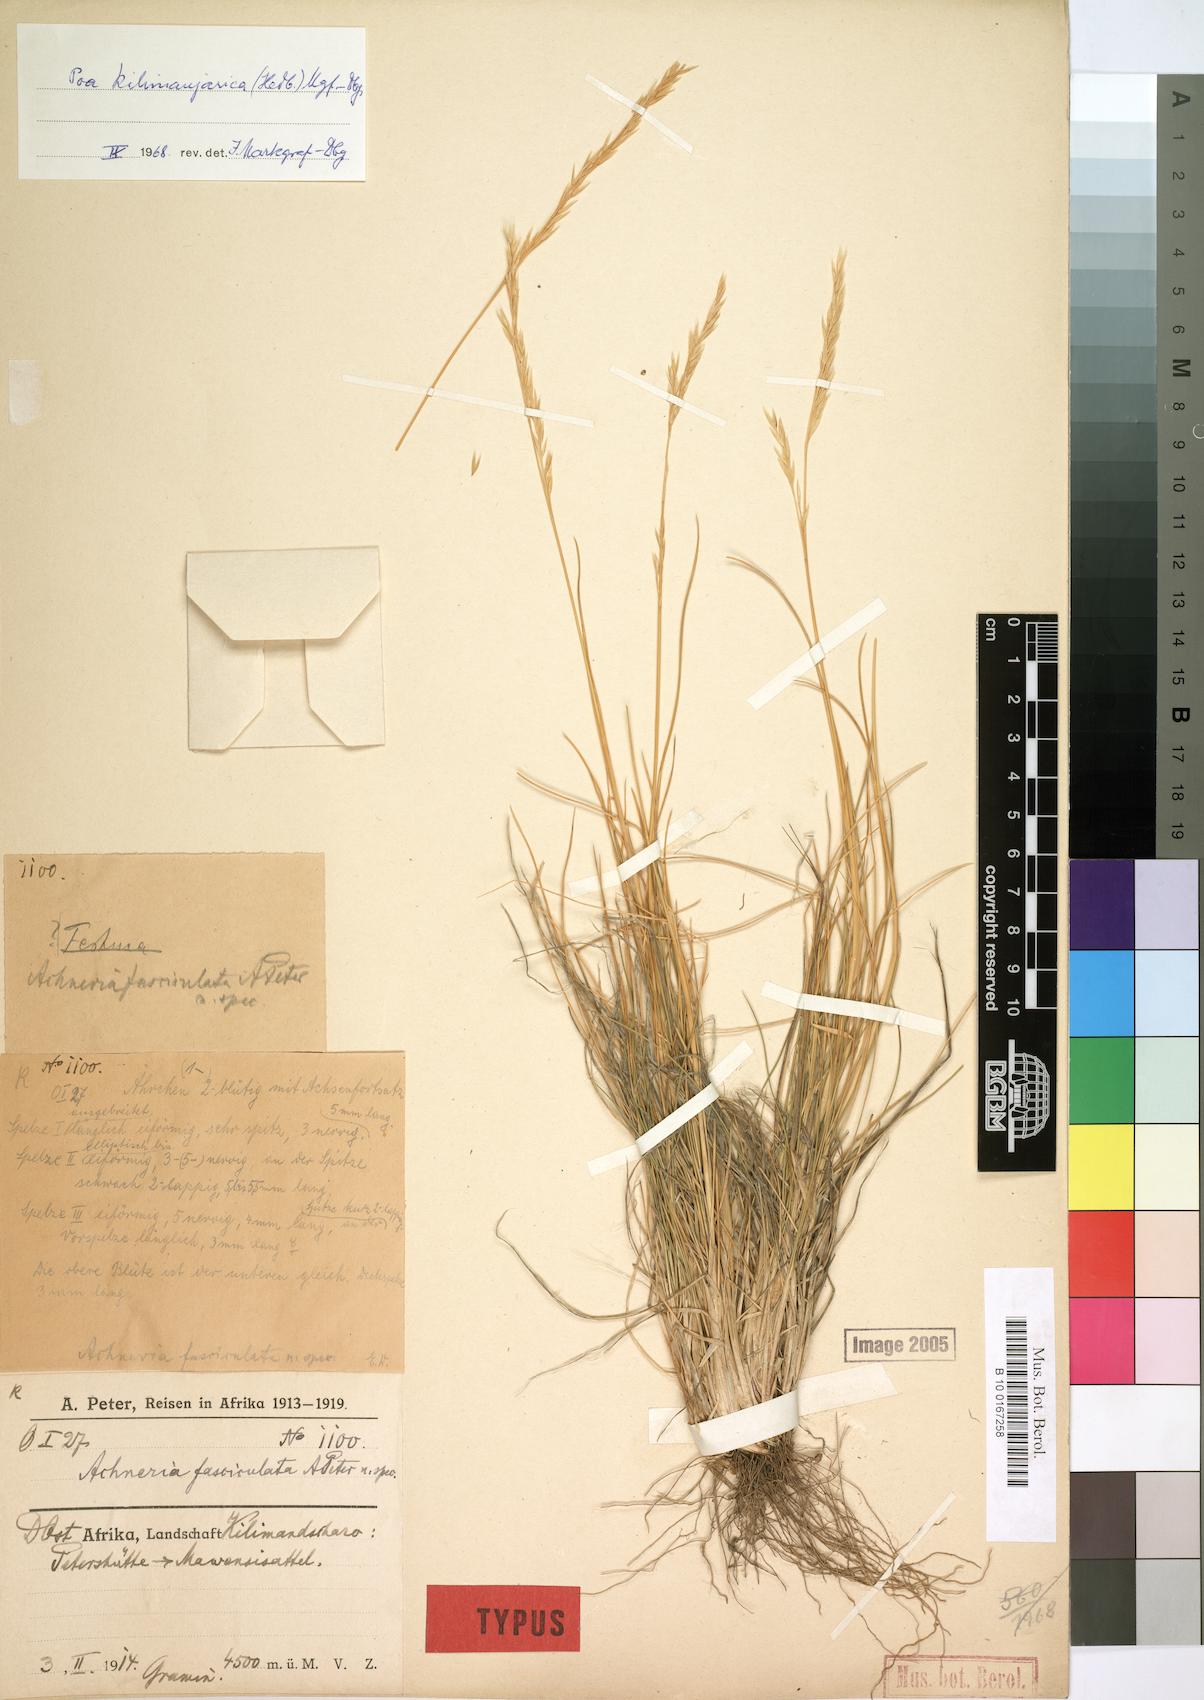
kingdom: Plantae
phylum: Tracheophyta
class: Liliopsida
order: Poales
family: Poaceae
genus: Poa
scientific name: Poa kilimanjarica
